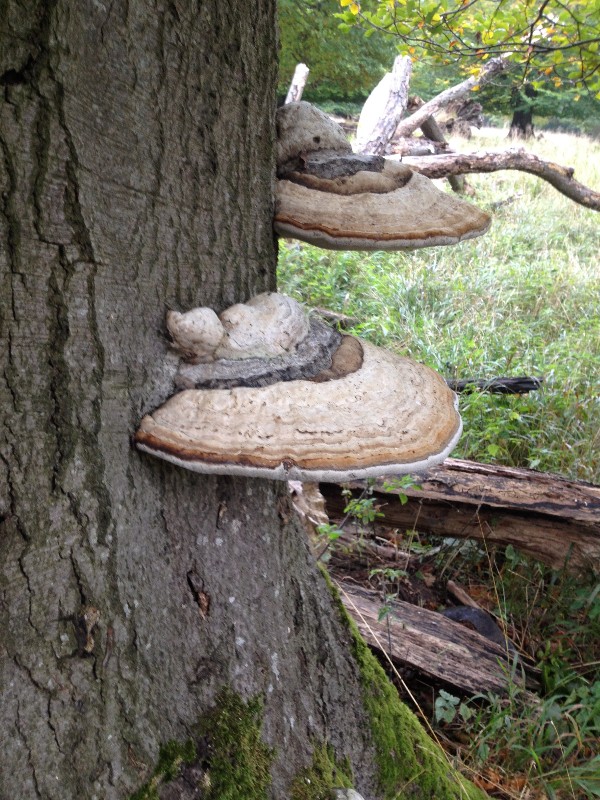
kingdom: Fungi
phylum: Basidiomycota
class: Agaricomycetes
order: Polyporales
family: Polyporaceae
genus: Fomes
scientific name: Fomes fomentarius
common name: tøndersvamp
